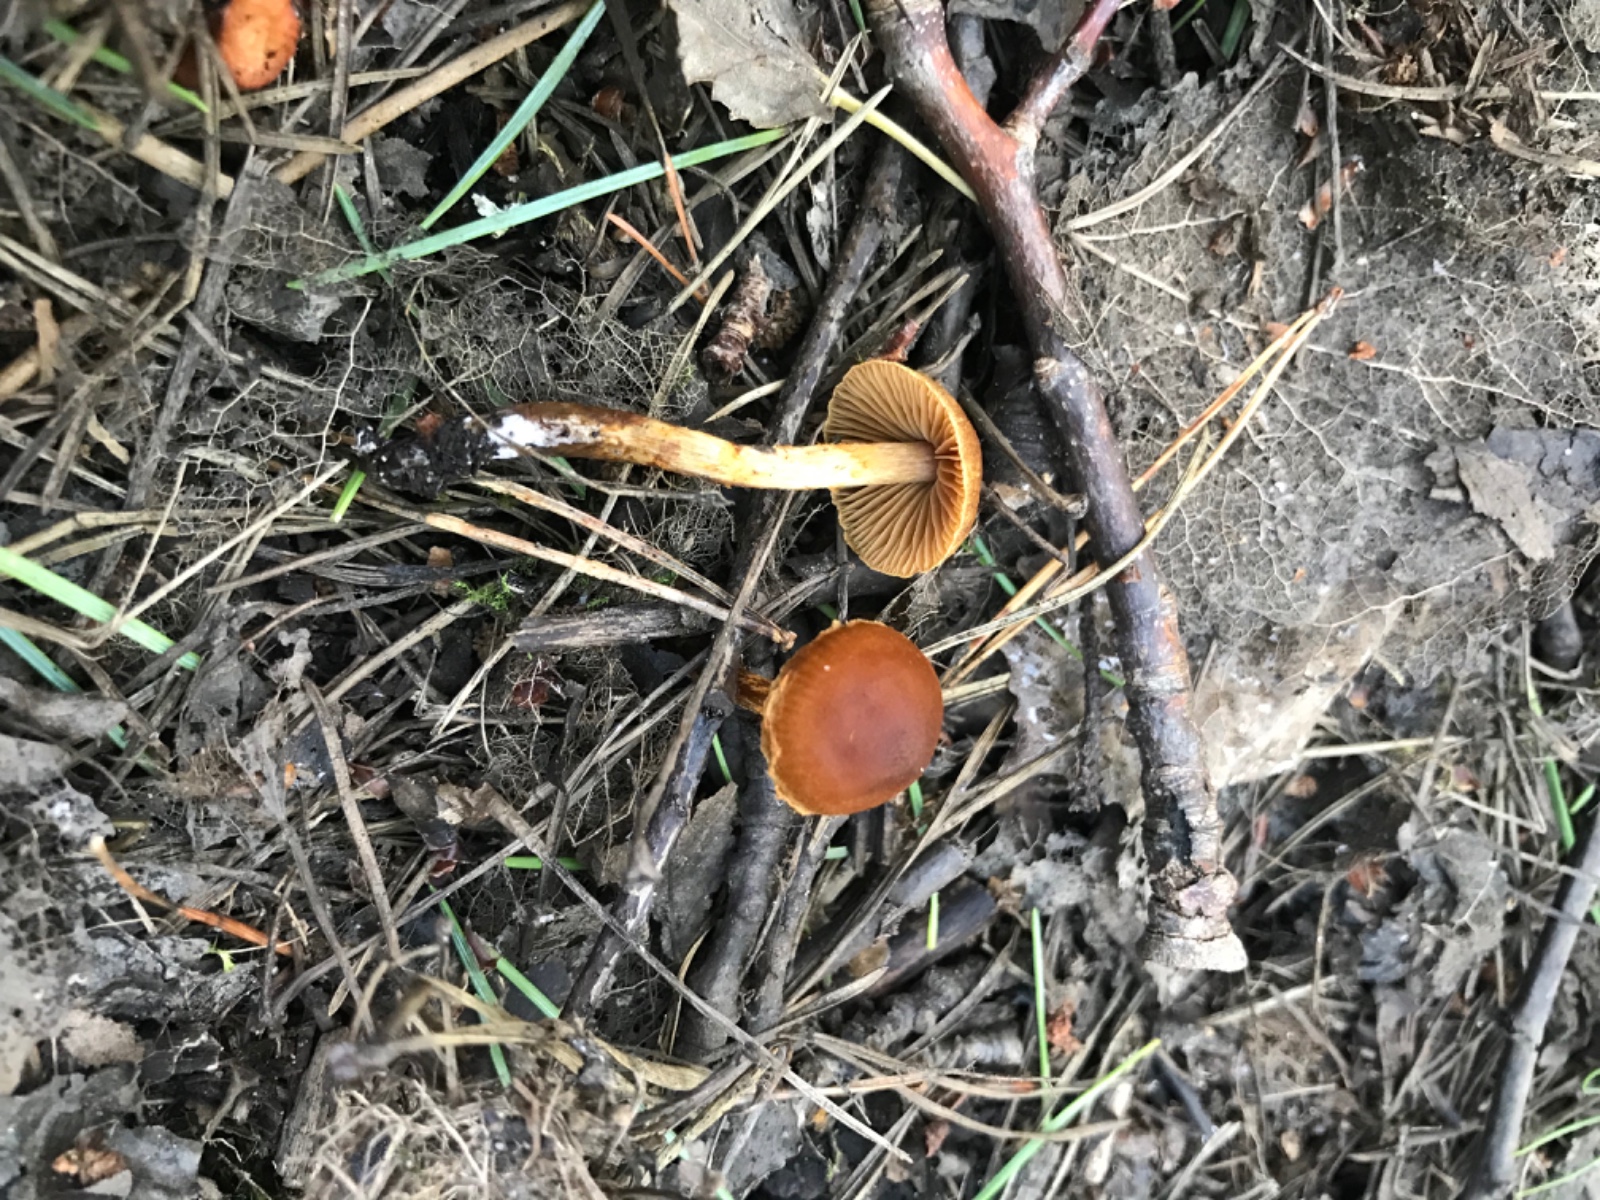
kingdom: Fungi
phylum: Basidiomycota
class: Agaricomycetes
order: Agaricales
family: Cortinariaceae
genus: Cortinarius
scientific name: Cortinarius saniosus
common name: gultrævlet slørhat
